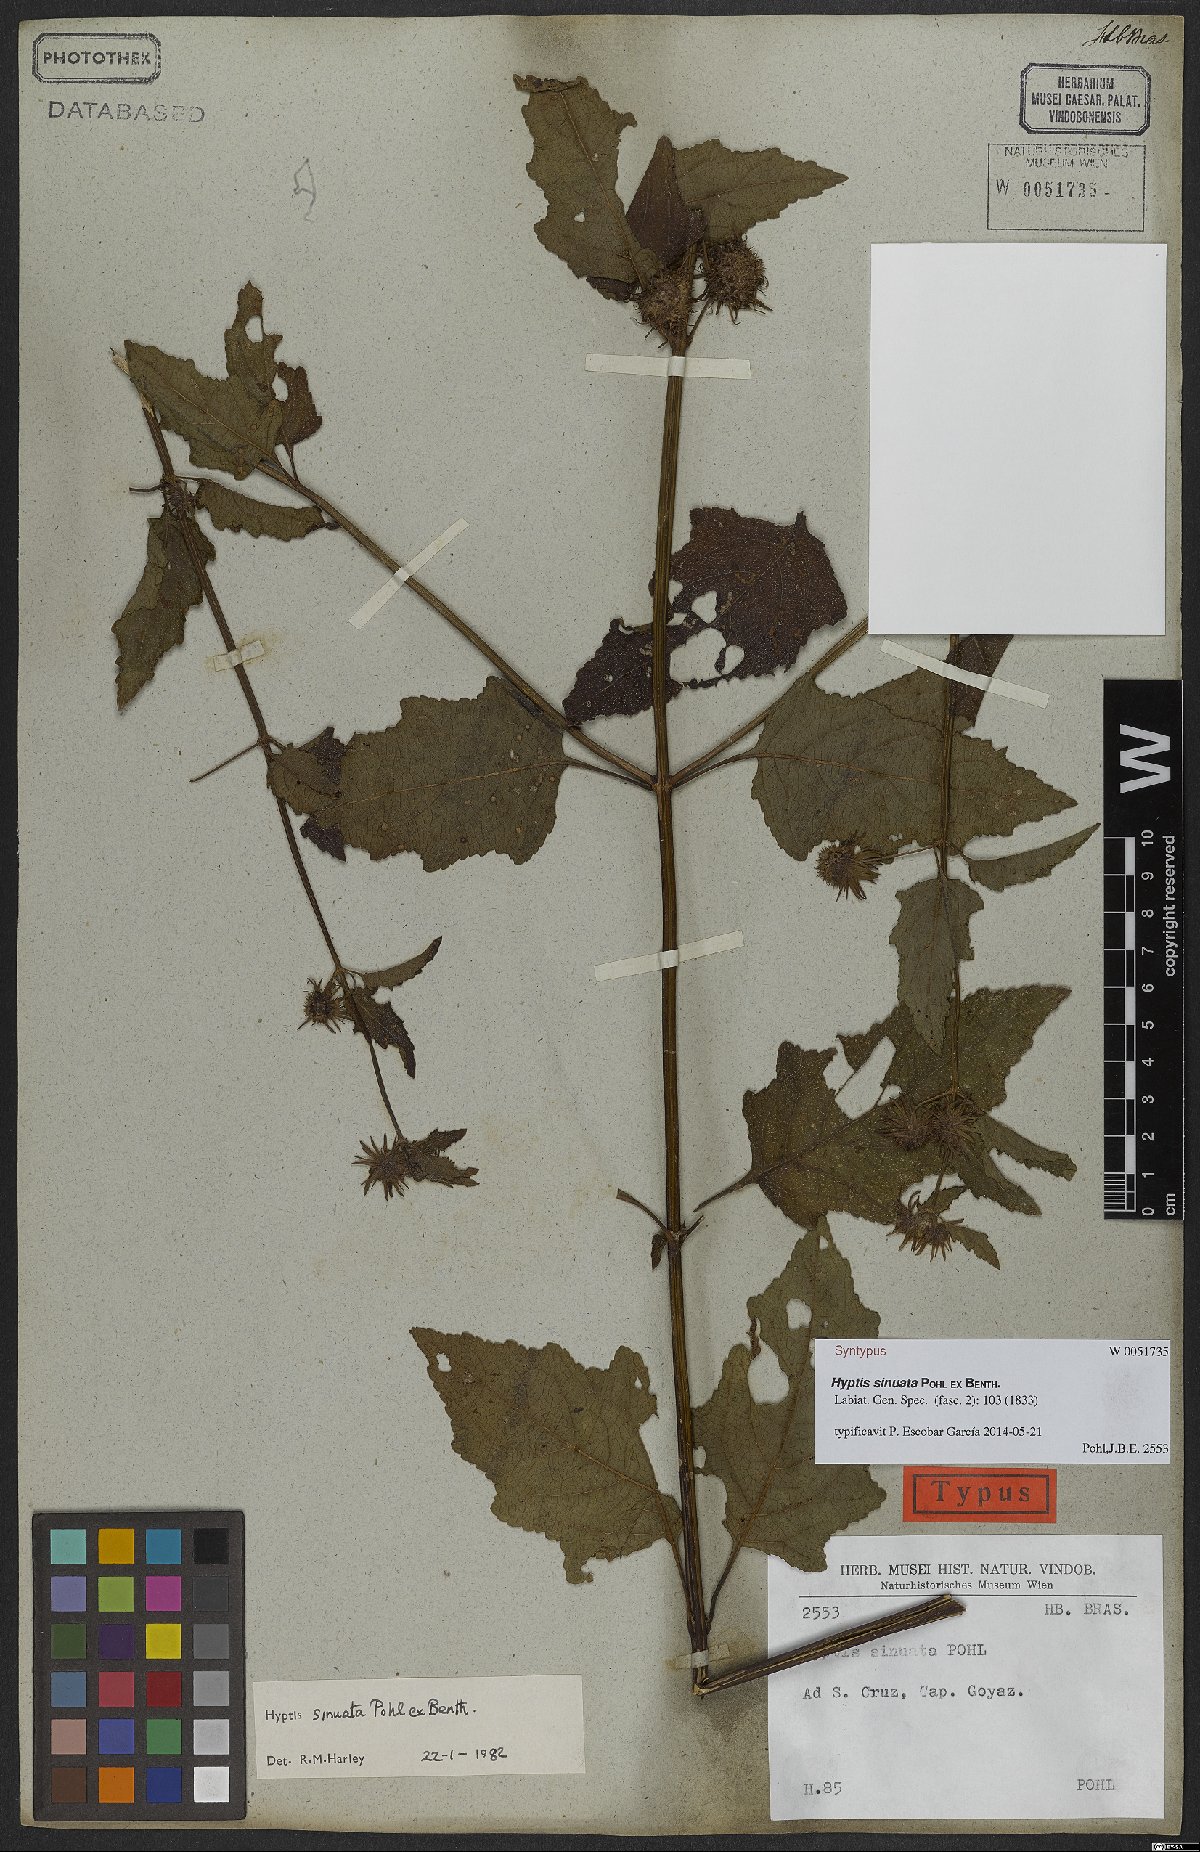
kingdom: Plantae
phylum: Tracheophyta
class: Magnoliopsida
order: Lamiales
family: Lamiaceae
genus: Hyptis
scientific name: Hyptis sinuata
